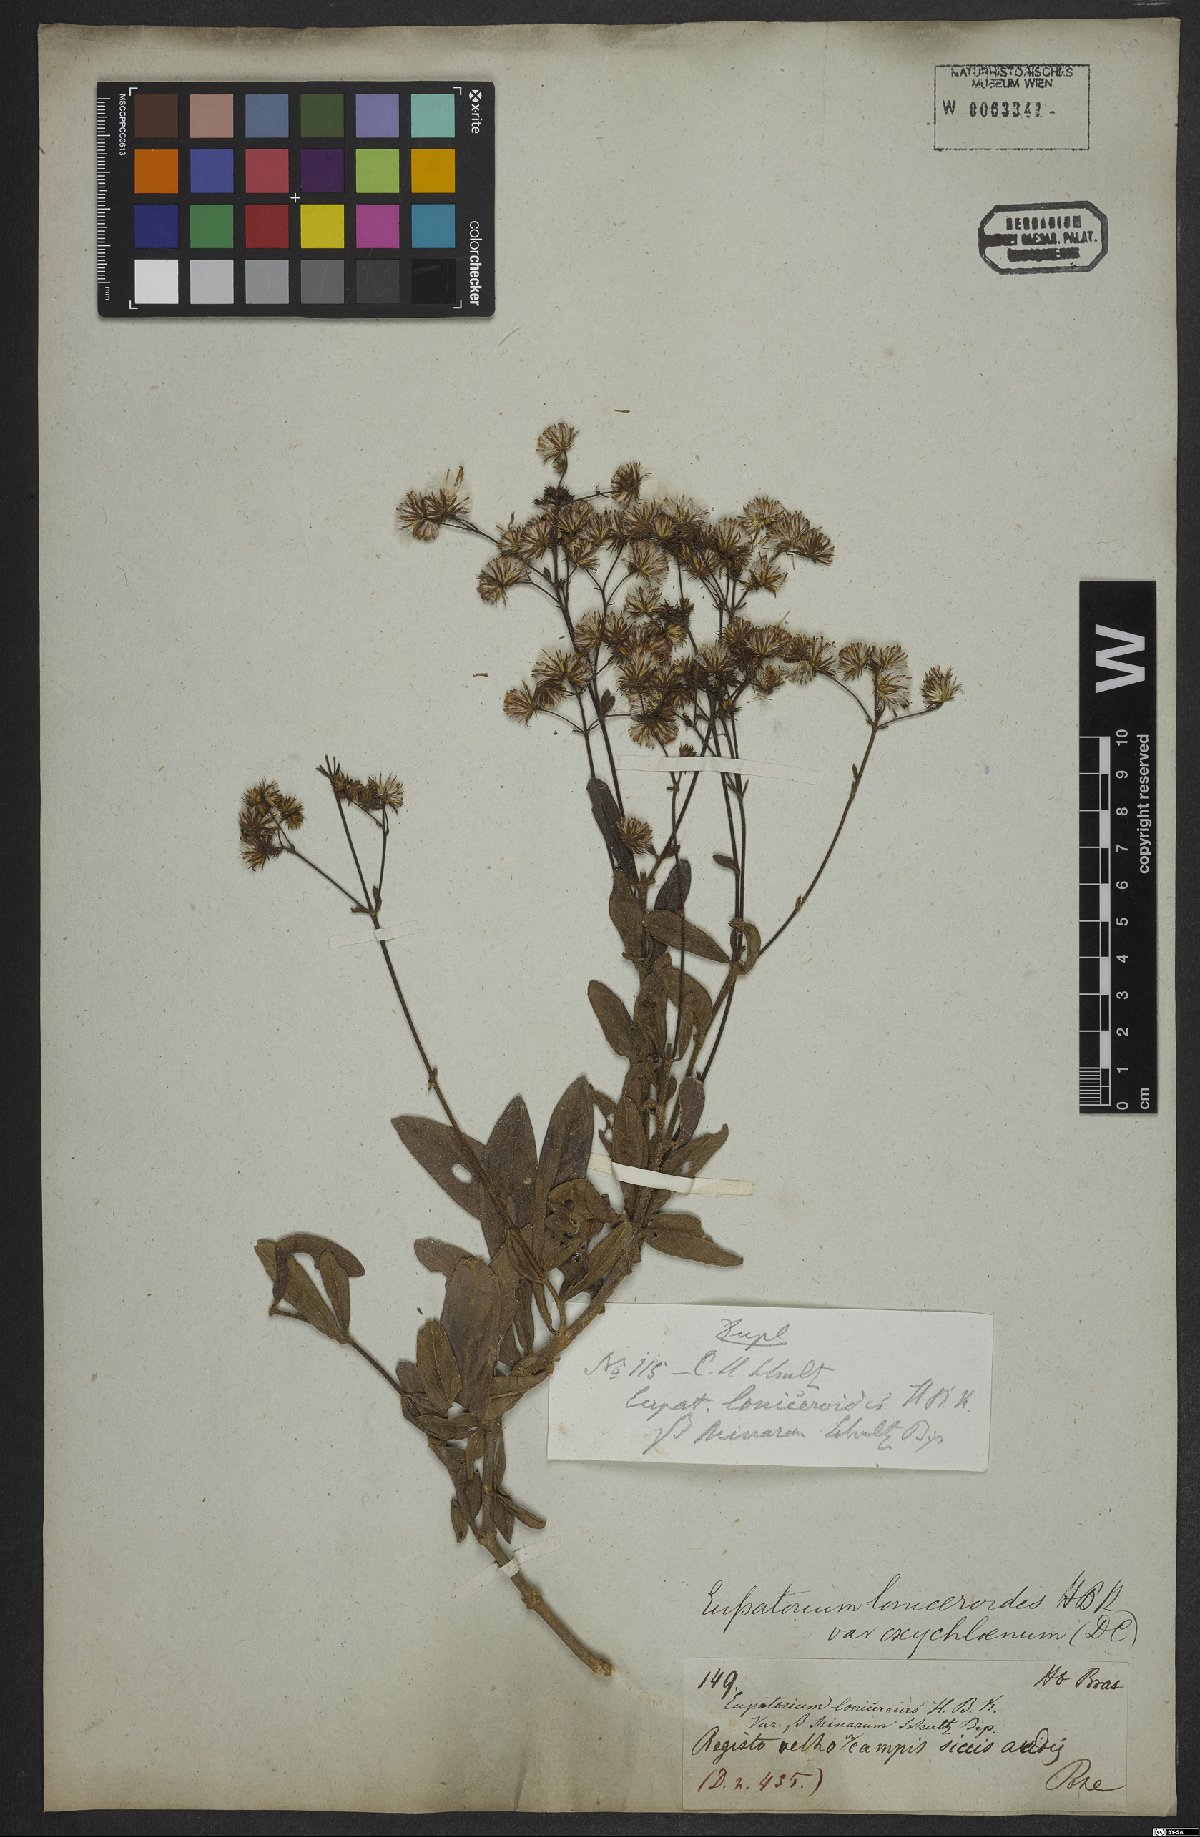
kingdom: Plantae
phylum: Tracheophyta
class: Magnoliopsida
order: Asterales
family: Asteraceae
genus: Ayapana
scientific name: Ayapana amygdalina
